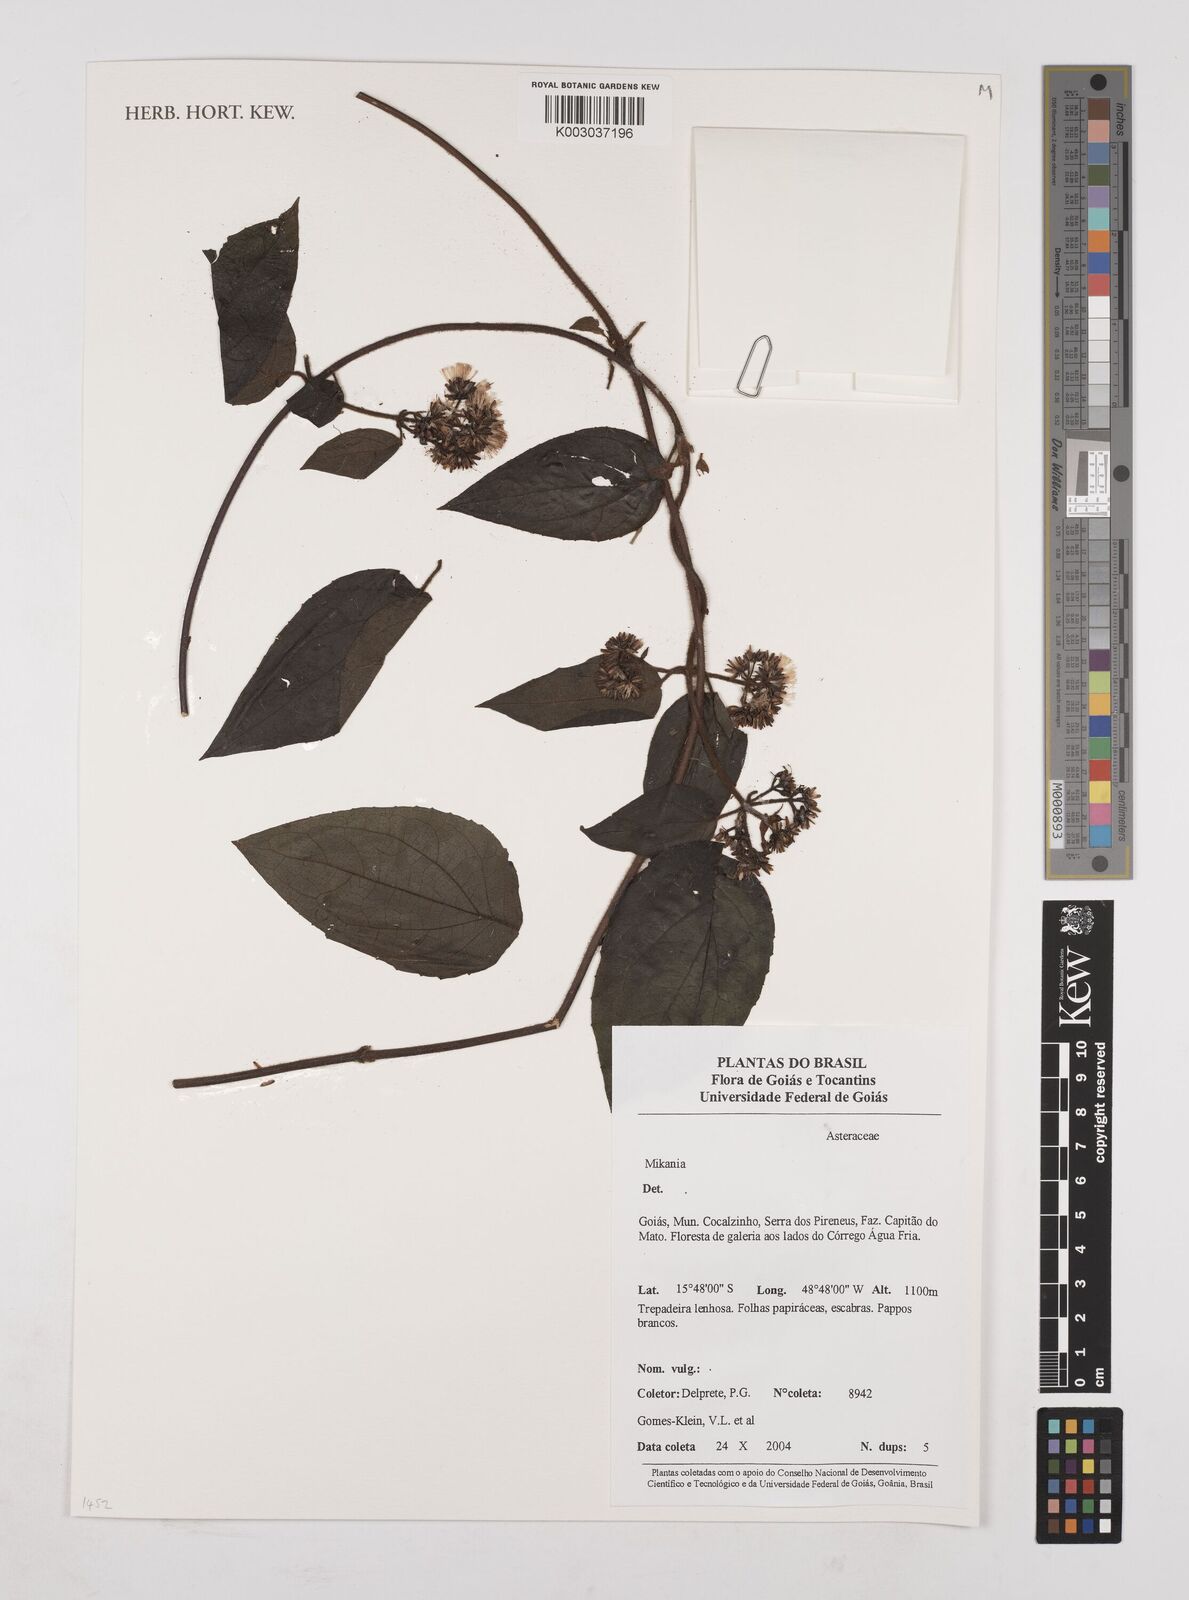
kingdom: Plantae
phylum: Tracheophyta
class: Magnoliopsida
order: Asterales
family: Asteraceae
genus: Mikania
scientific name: Mikania
